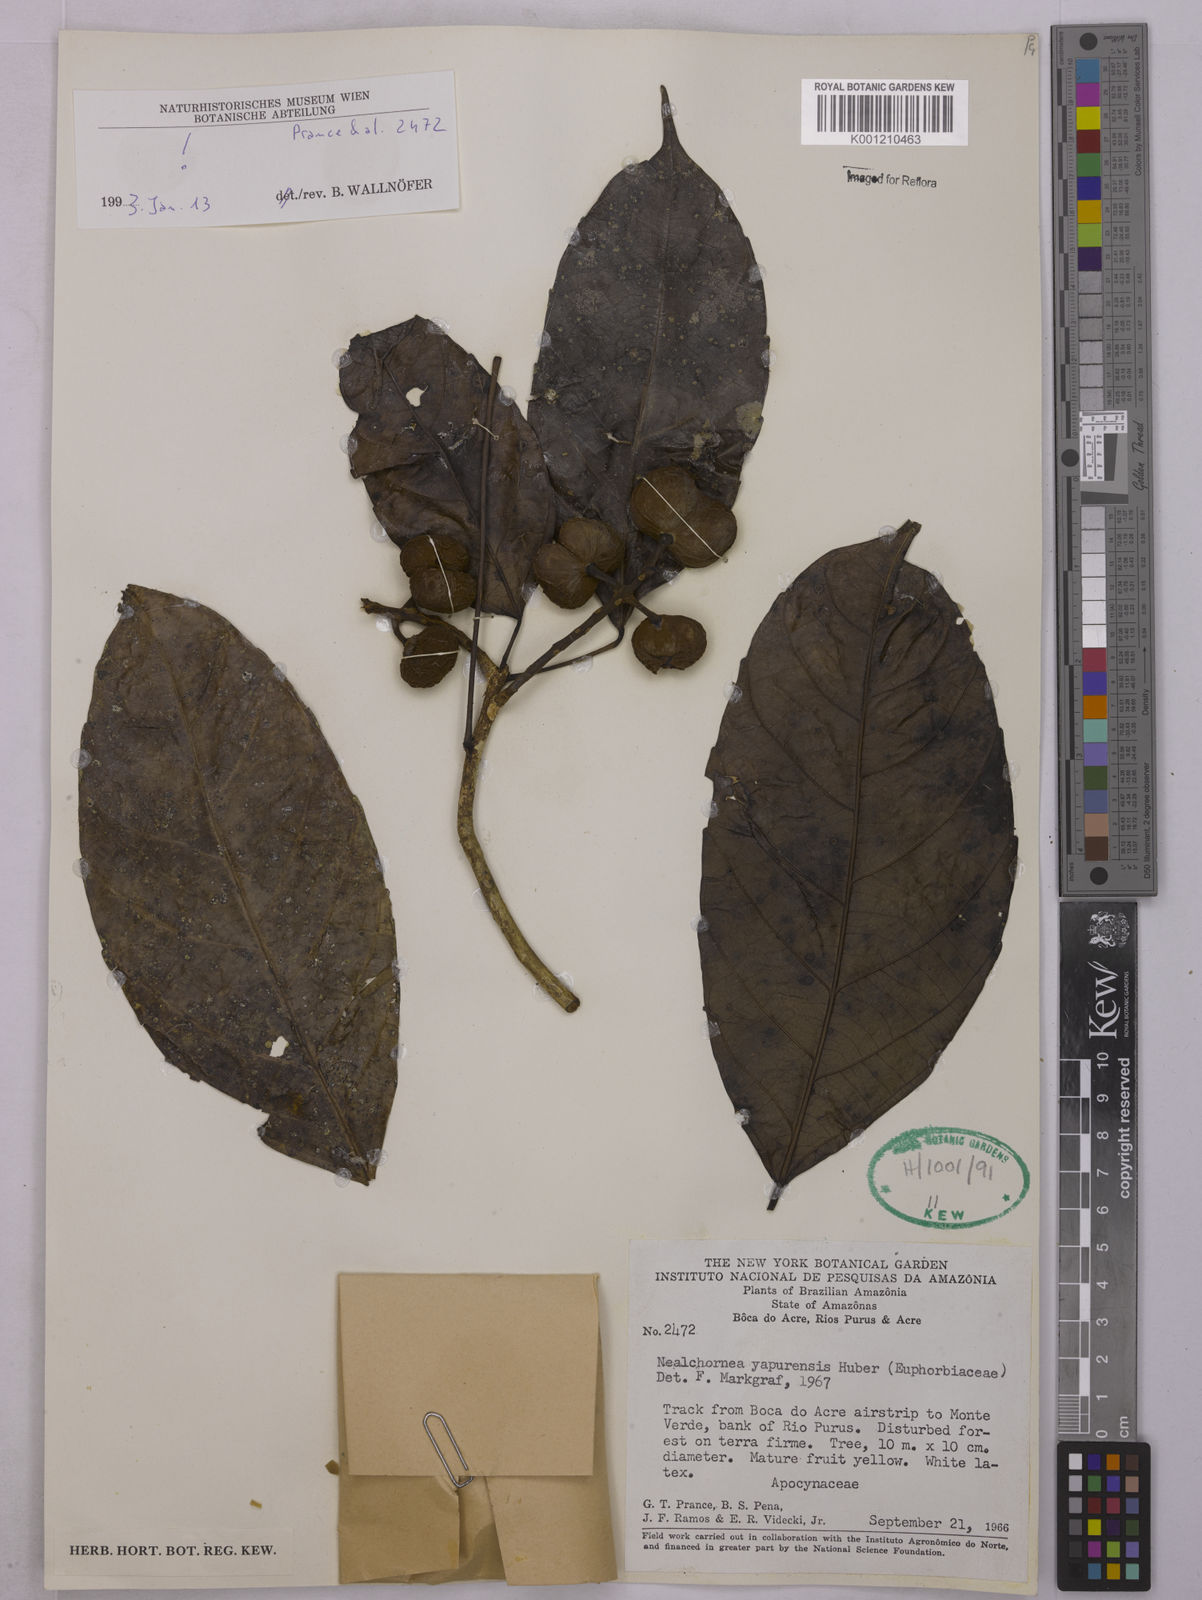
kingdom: Plantae
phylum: Tracheophyta
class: Magnoliopsida
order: Malpighiales
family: Euphorbiaceae
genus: Nealchornea
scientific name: Nealchornea yapurensis
